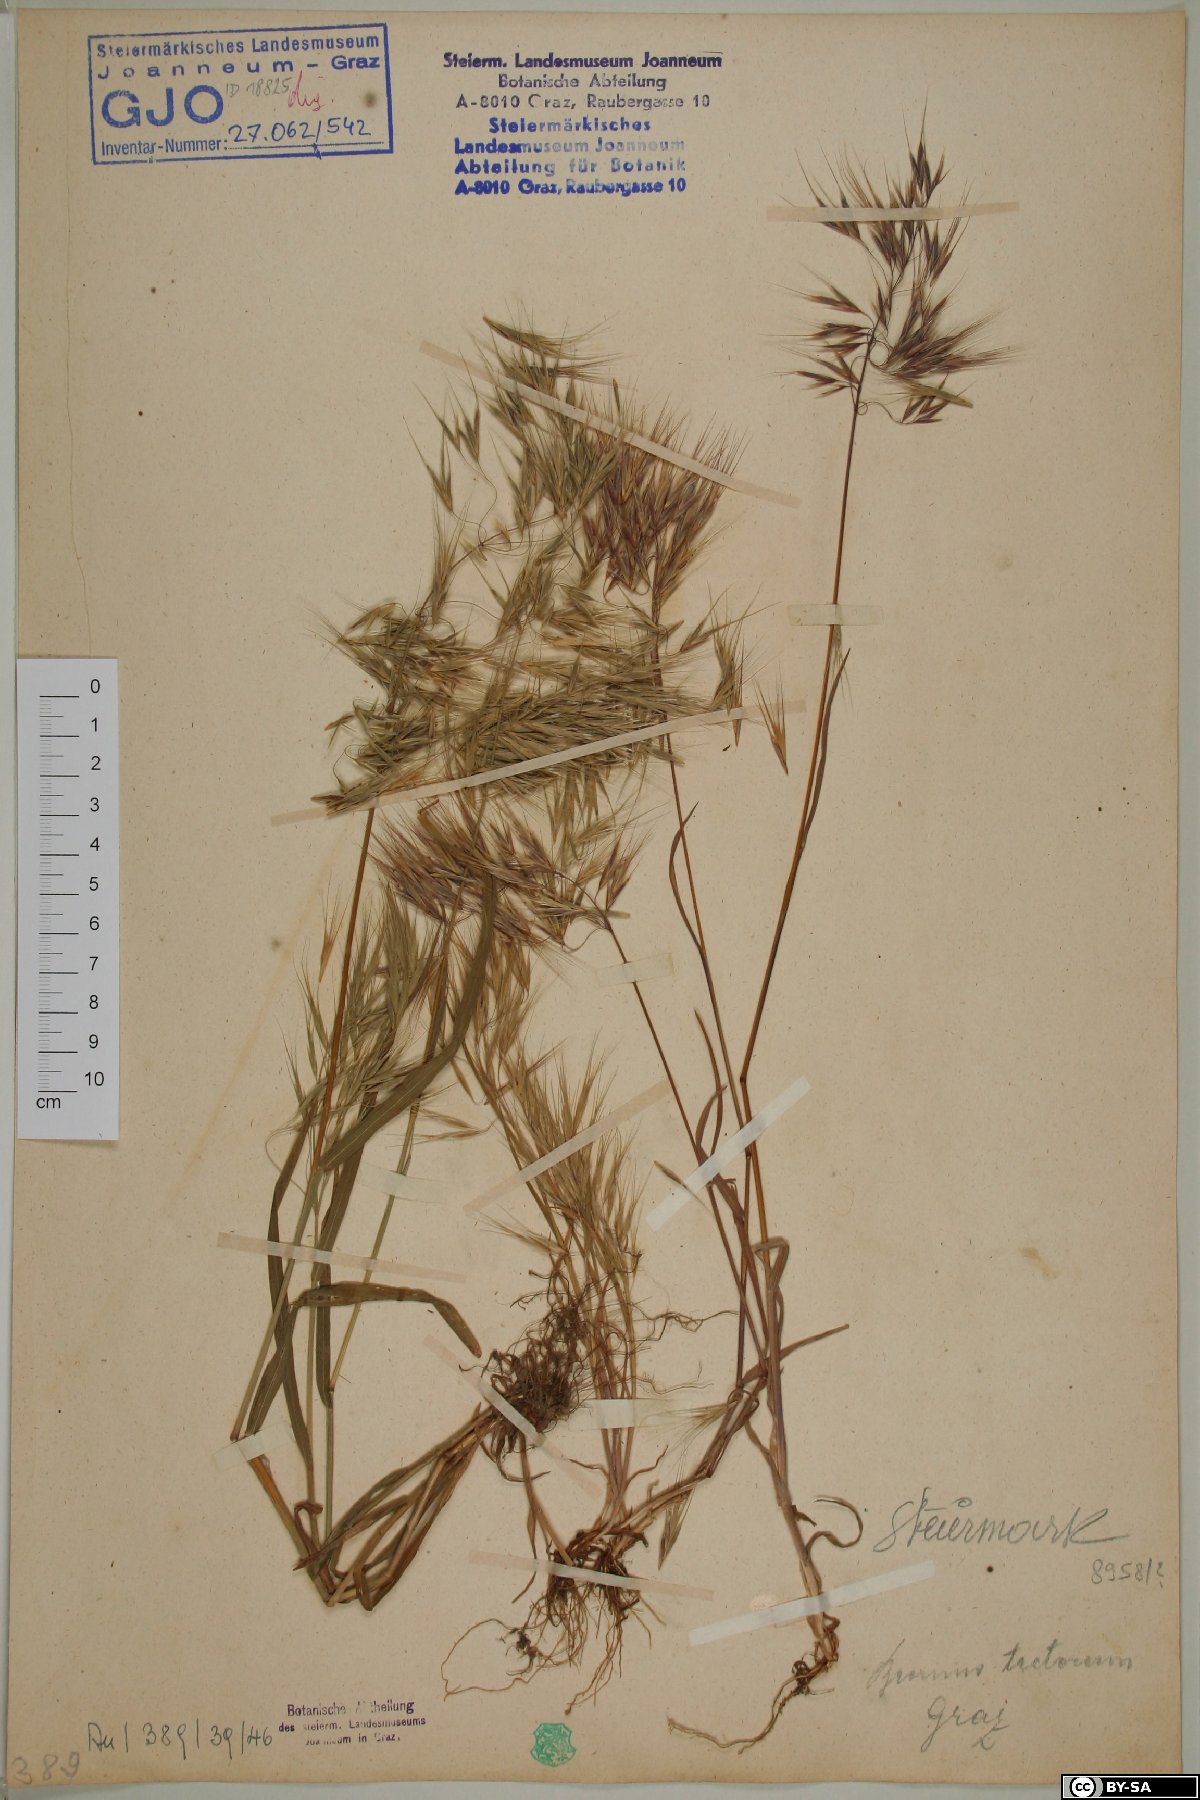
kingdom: Plantae
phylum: Tracheophyta
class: Liliopsida
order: Poales
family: Poaceae
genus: Bromus
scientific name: Bromus tectorum
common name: Cheatgrass
